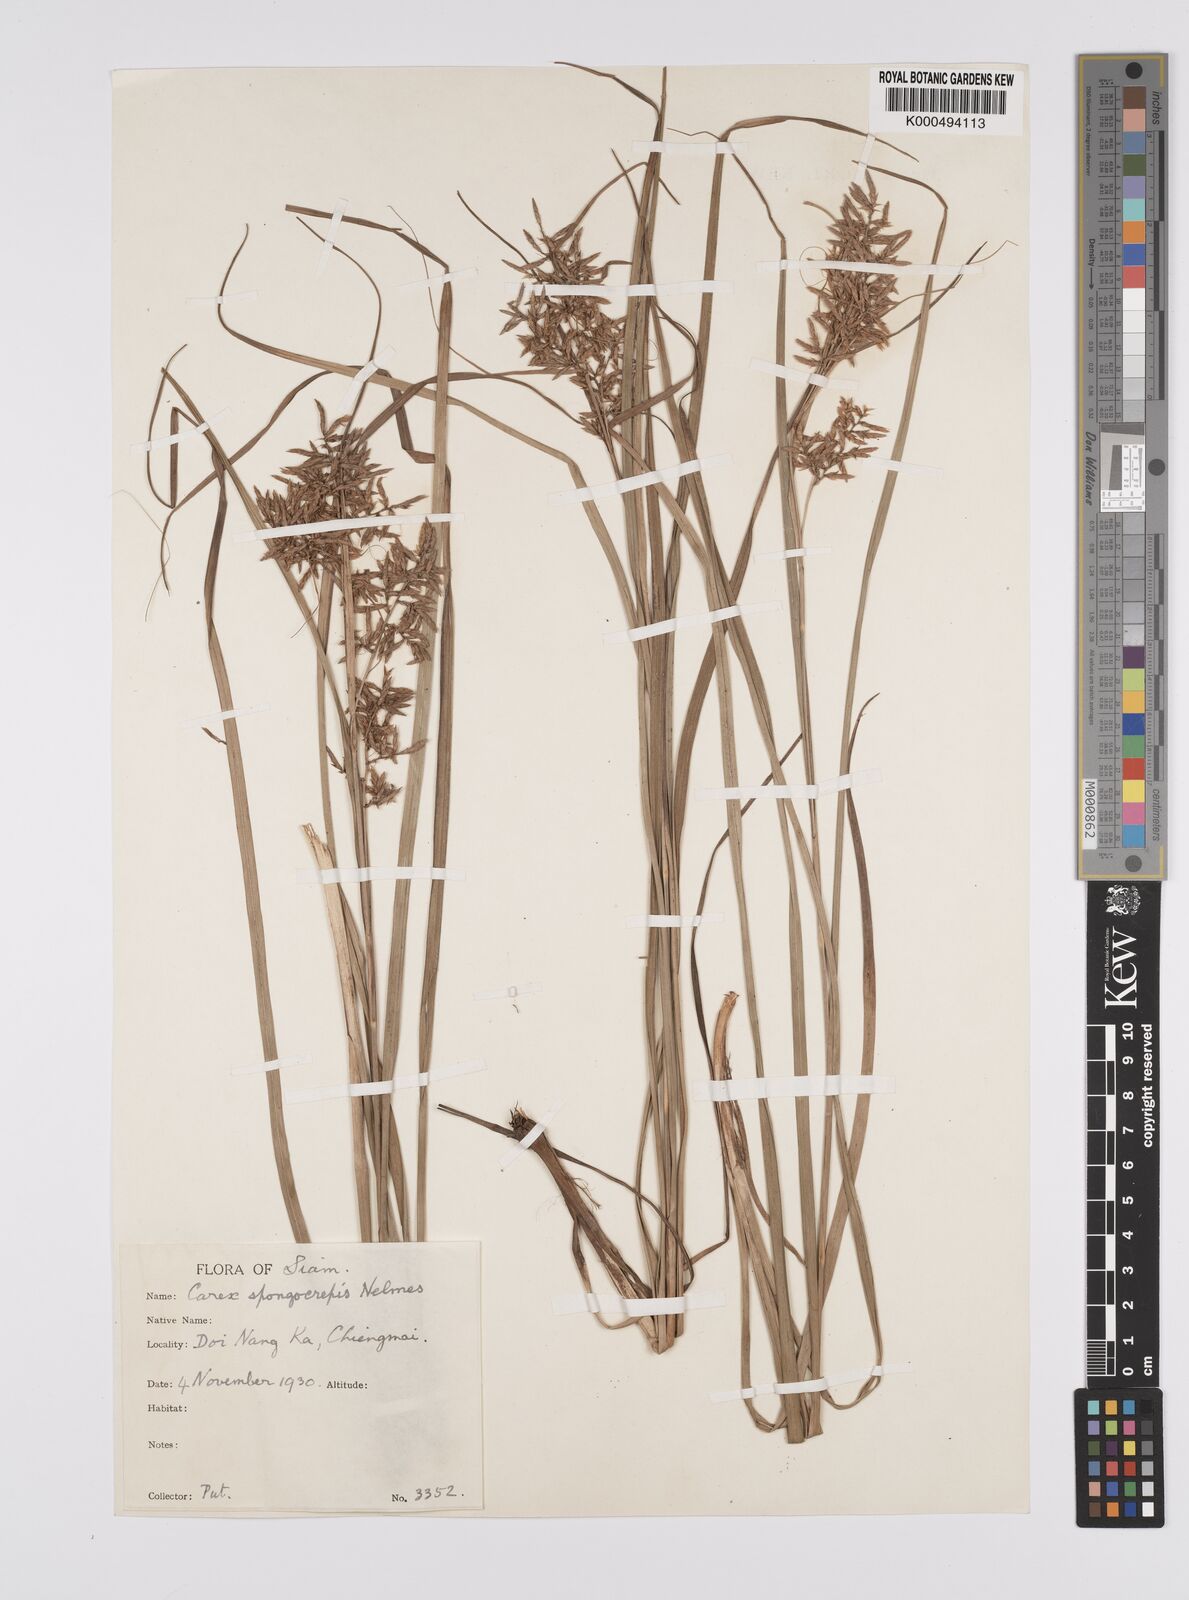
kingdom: Plantae
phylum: Tracheophyta
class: Liliopsida
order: Poales
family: Cyperaceae
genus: Carex
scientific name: Carex cruciata
